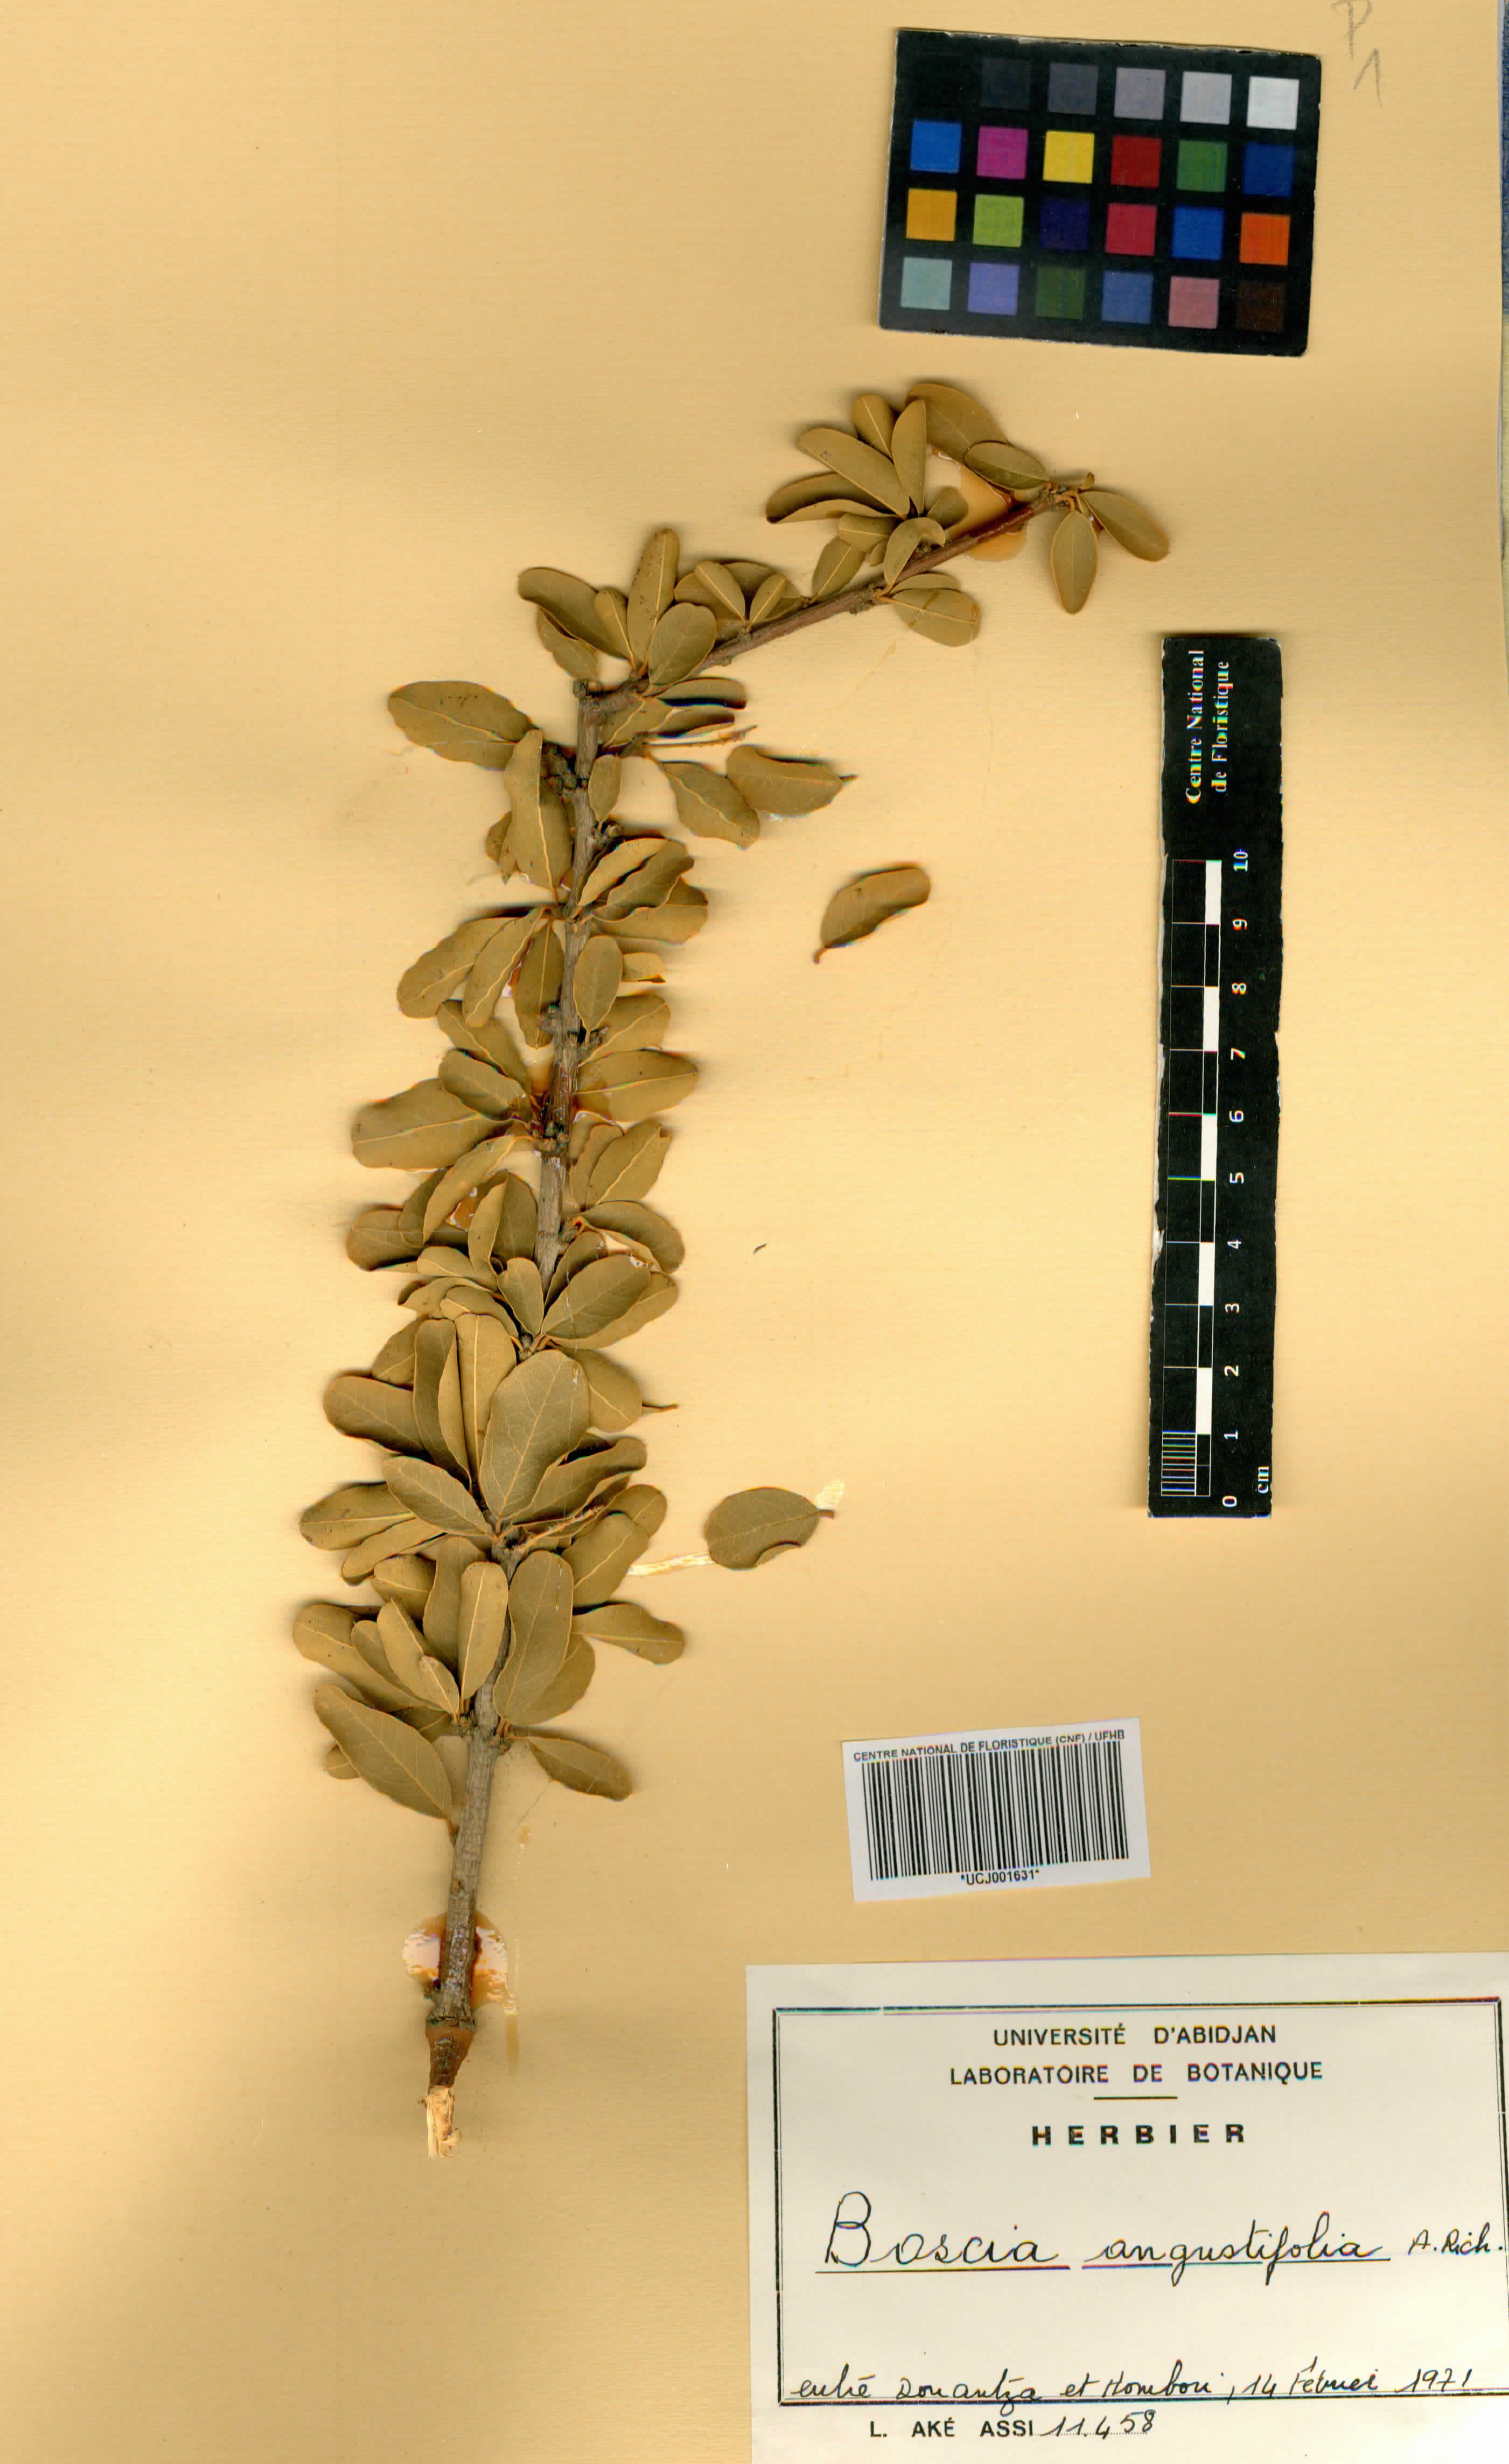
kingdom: Plantae
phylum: Tracheophyta
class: Magnoliopsida
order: Brassicales
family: Capparaceae
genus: Boscia
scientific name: Boscia angustifolia
